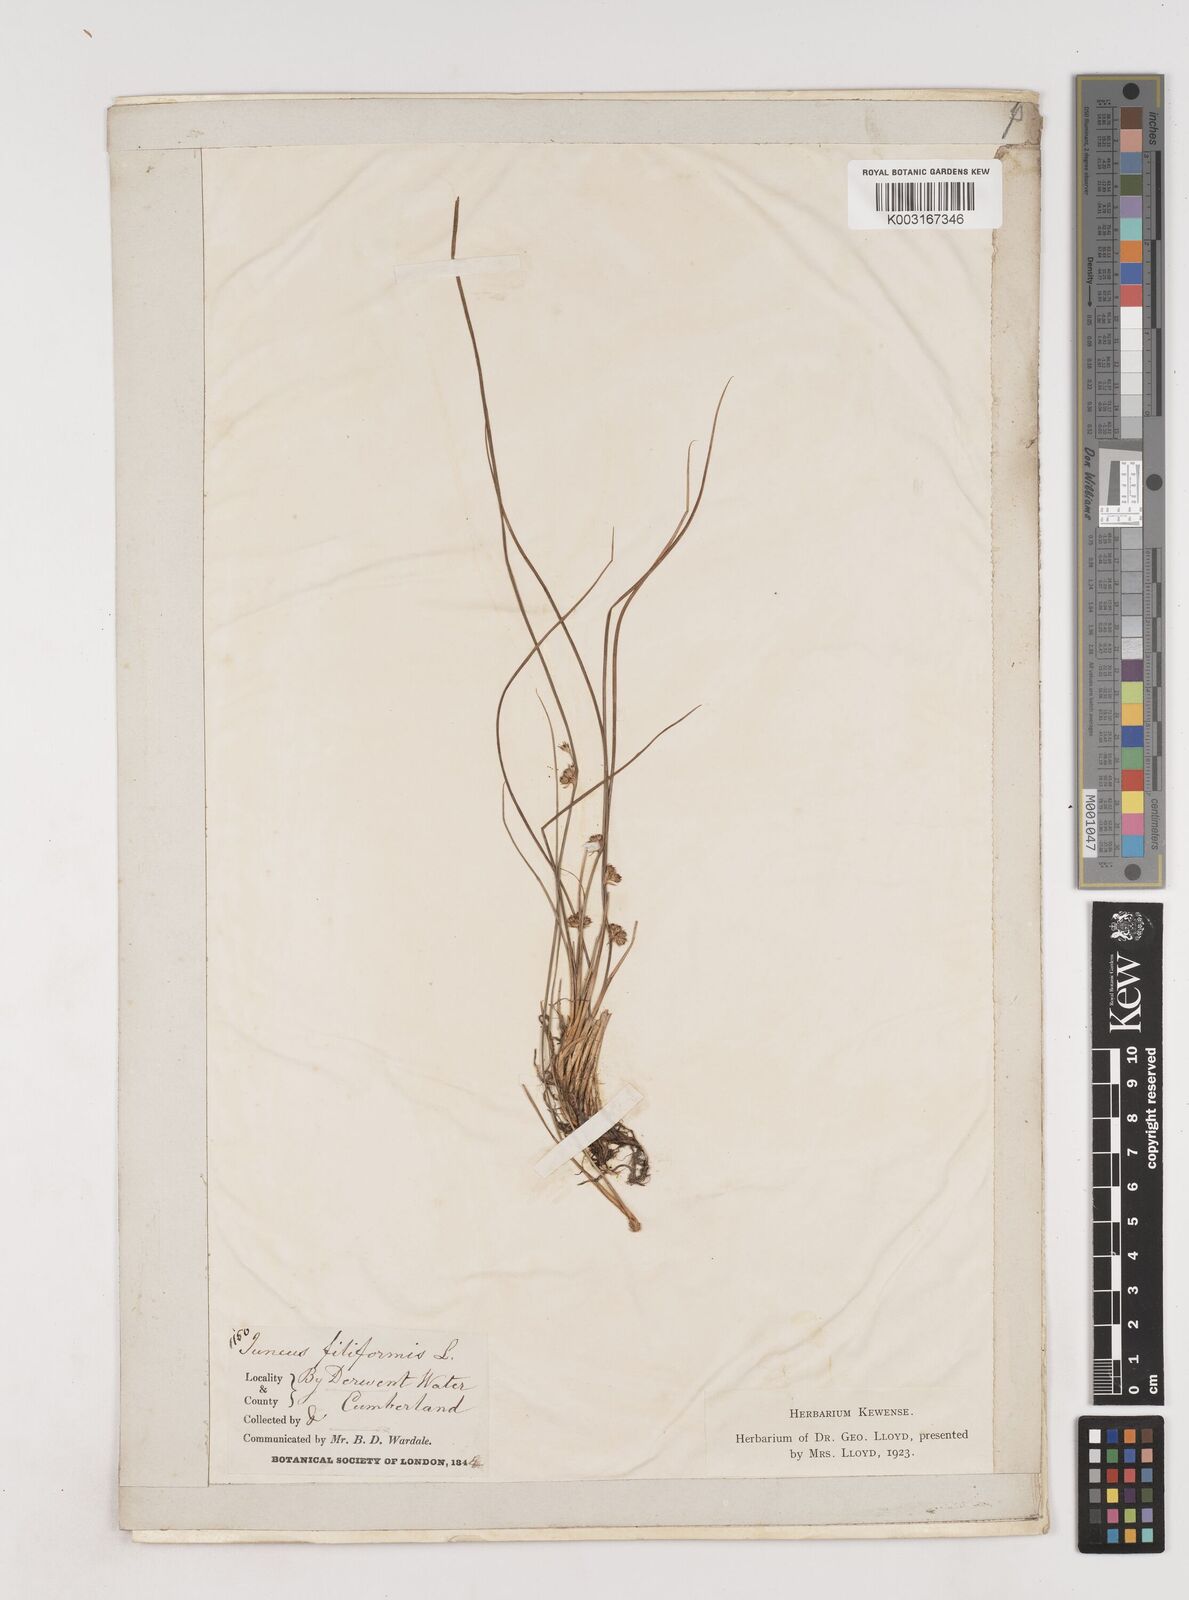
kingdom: Plantae
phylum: Tracheophyta
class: Liliopsida
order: Poales
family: Juncaceae
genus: Juncus
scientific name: Juncus filiformis
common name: Thread rush
